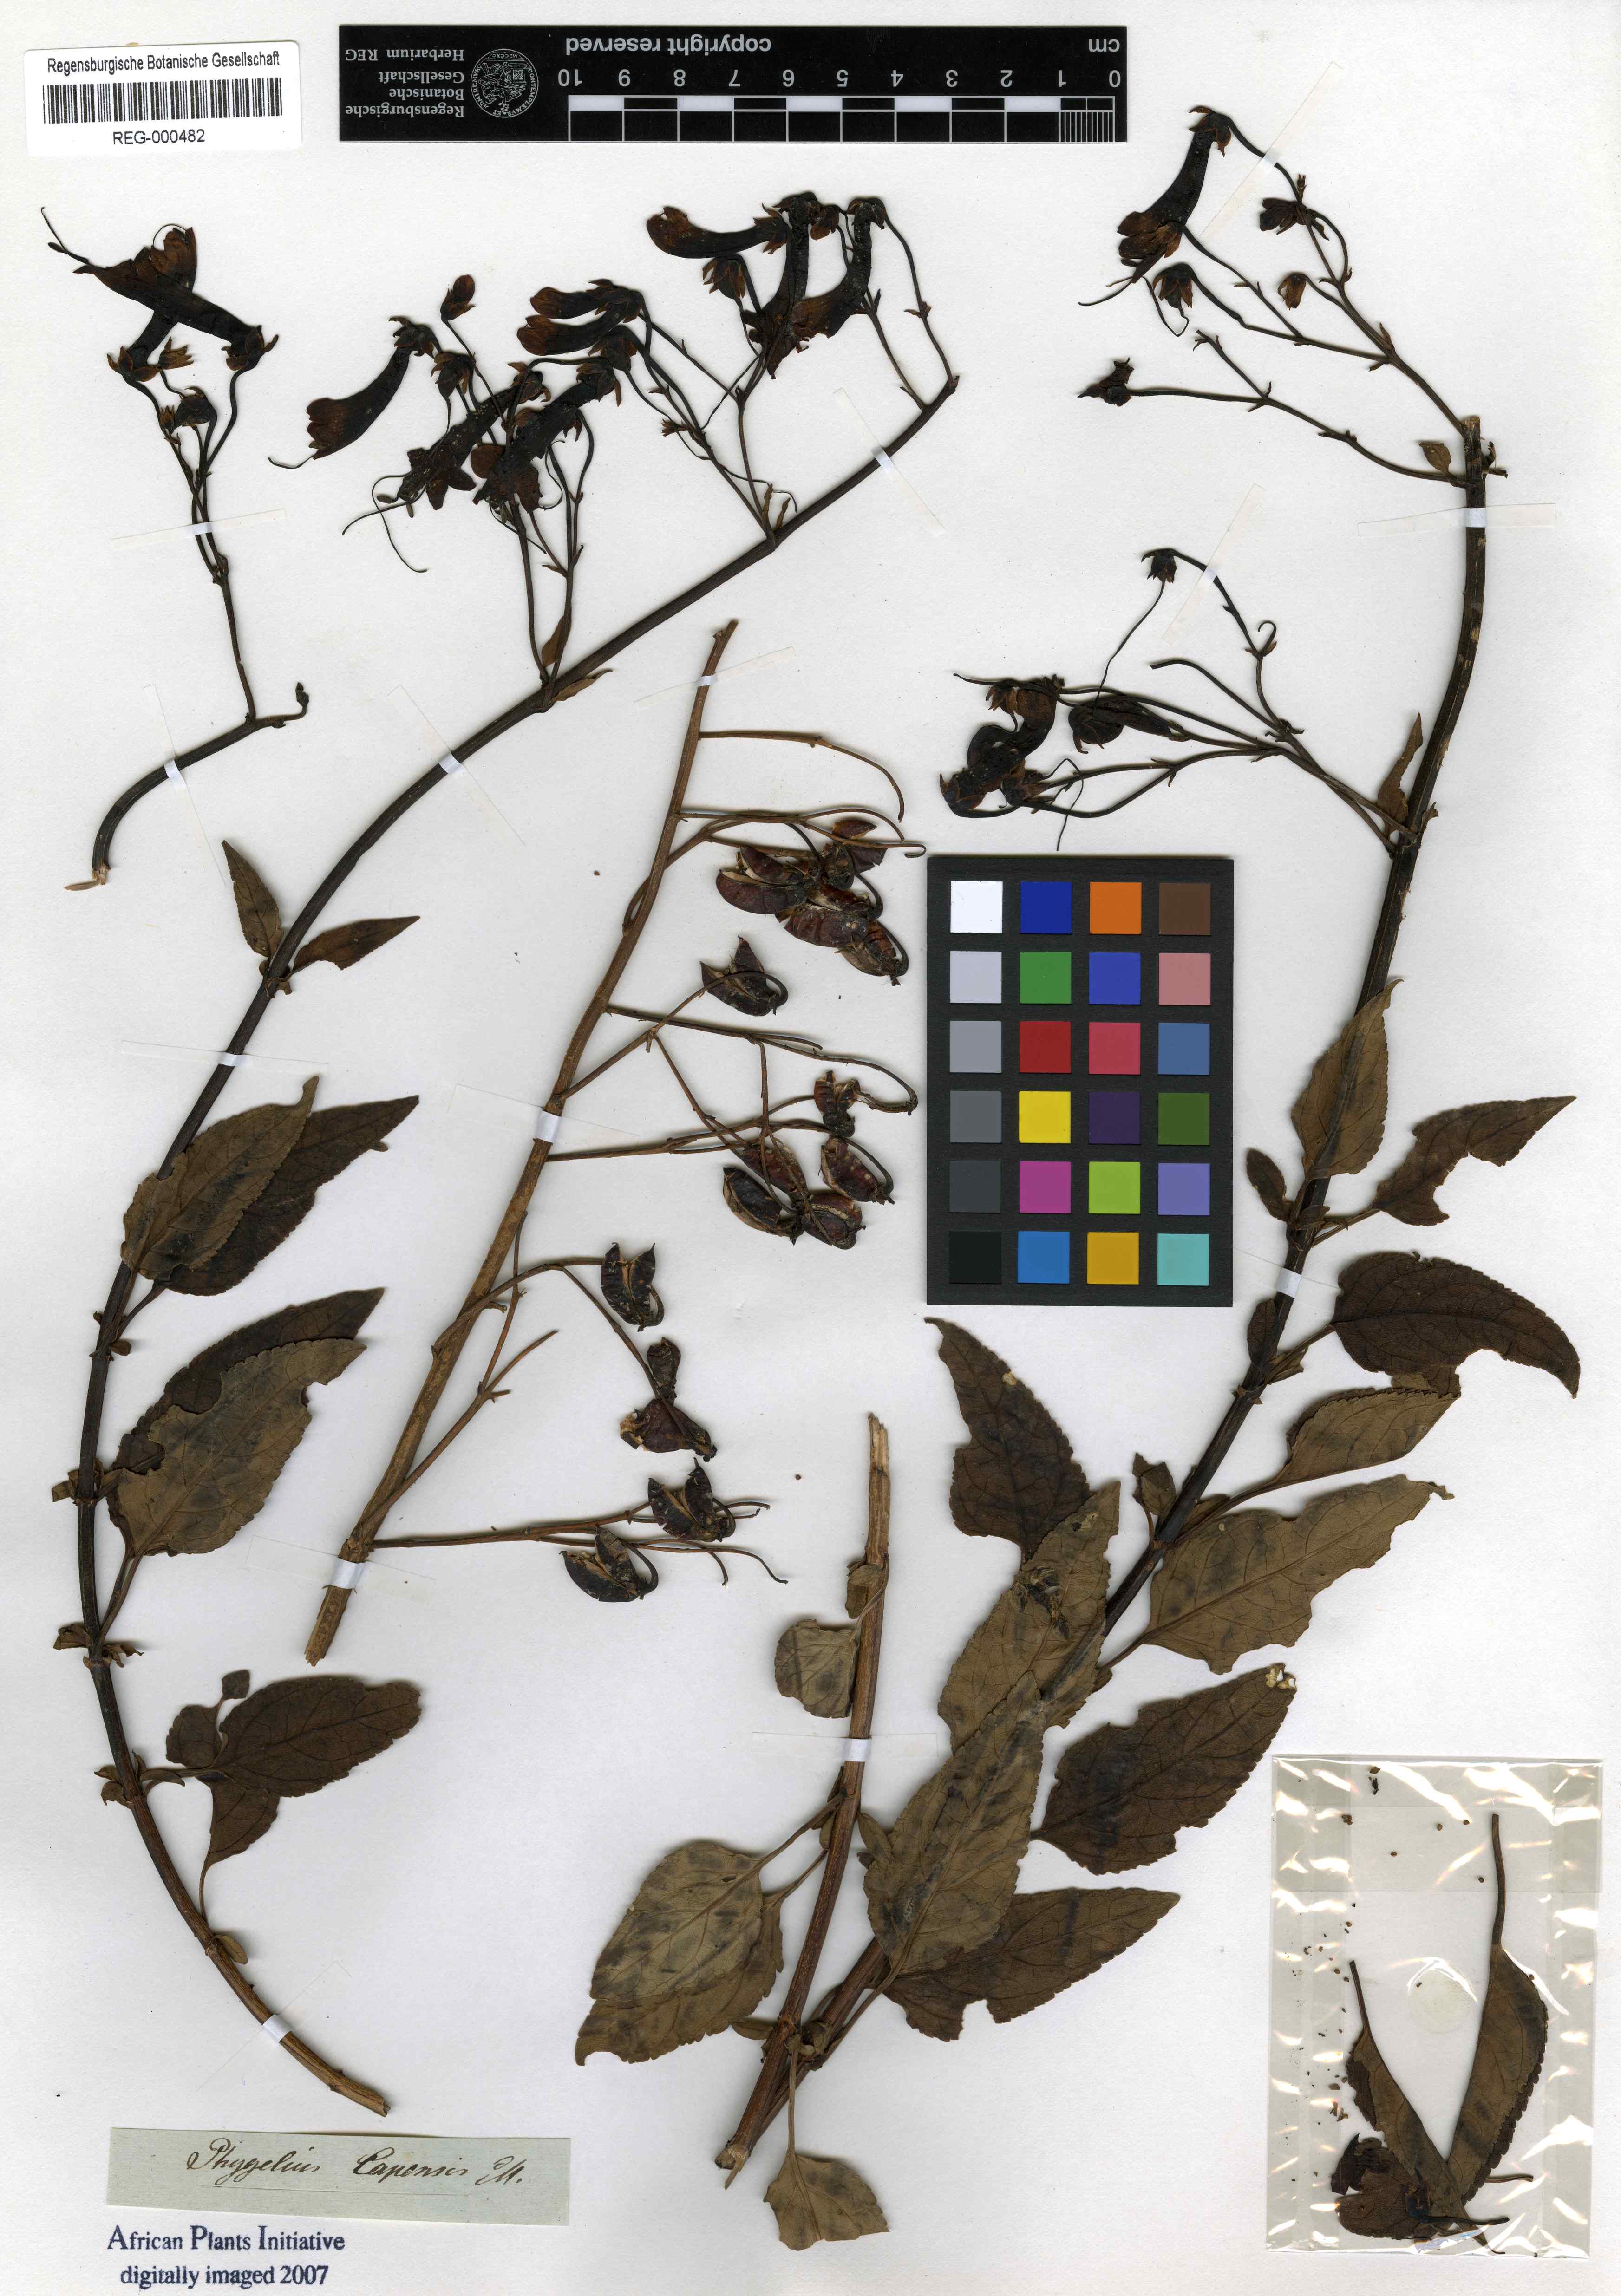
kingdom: Plantae
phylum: Tracheophyta
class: Magnoliopsida
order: Lamiales
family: Scrophulariaceae
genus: Phygelius
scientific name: Phygelius capensis
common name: Cape figwort
